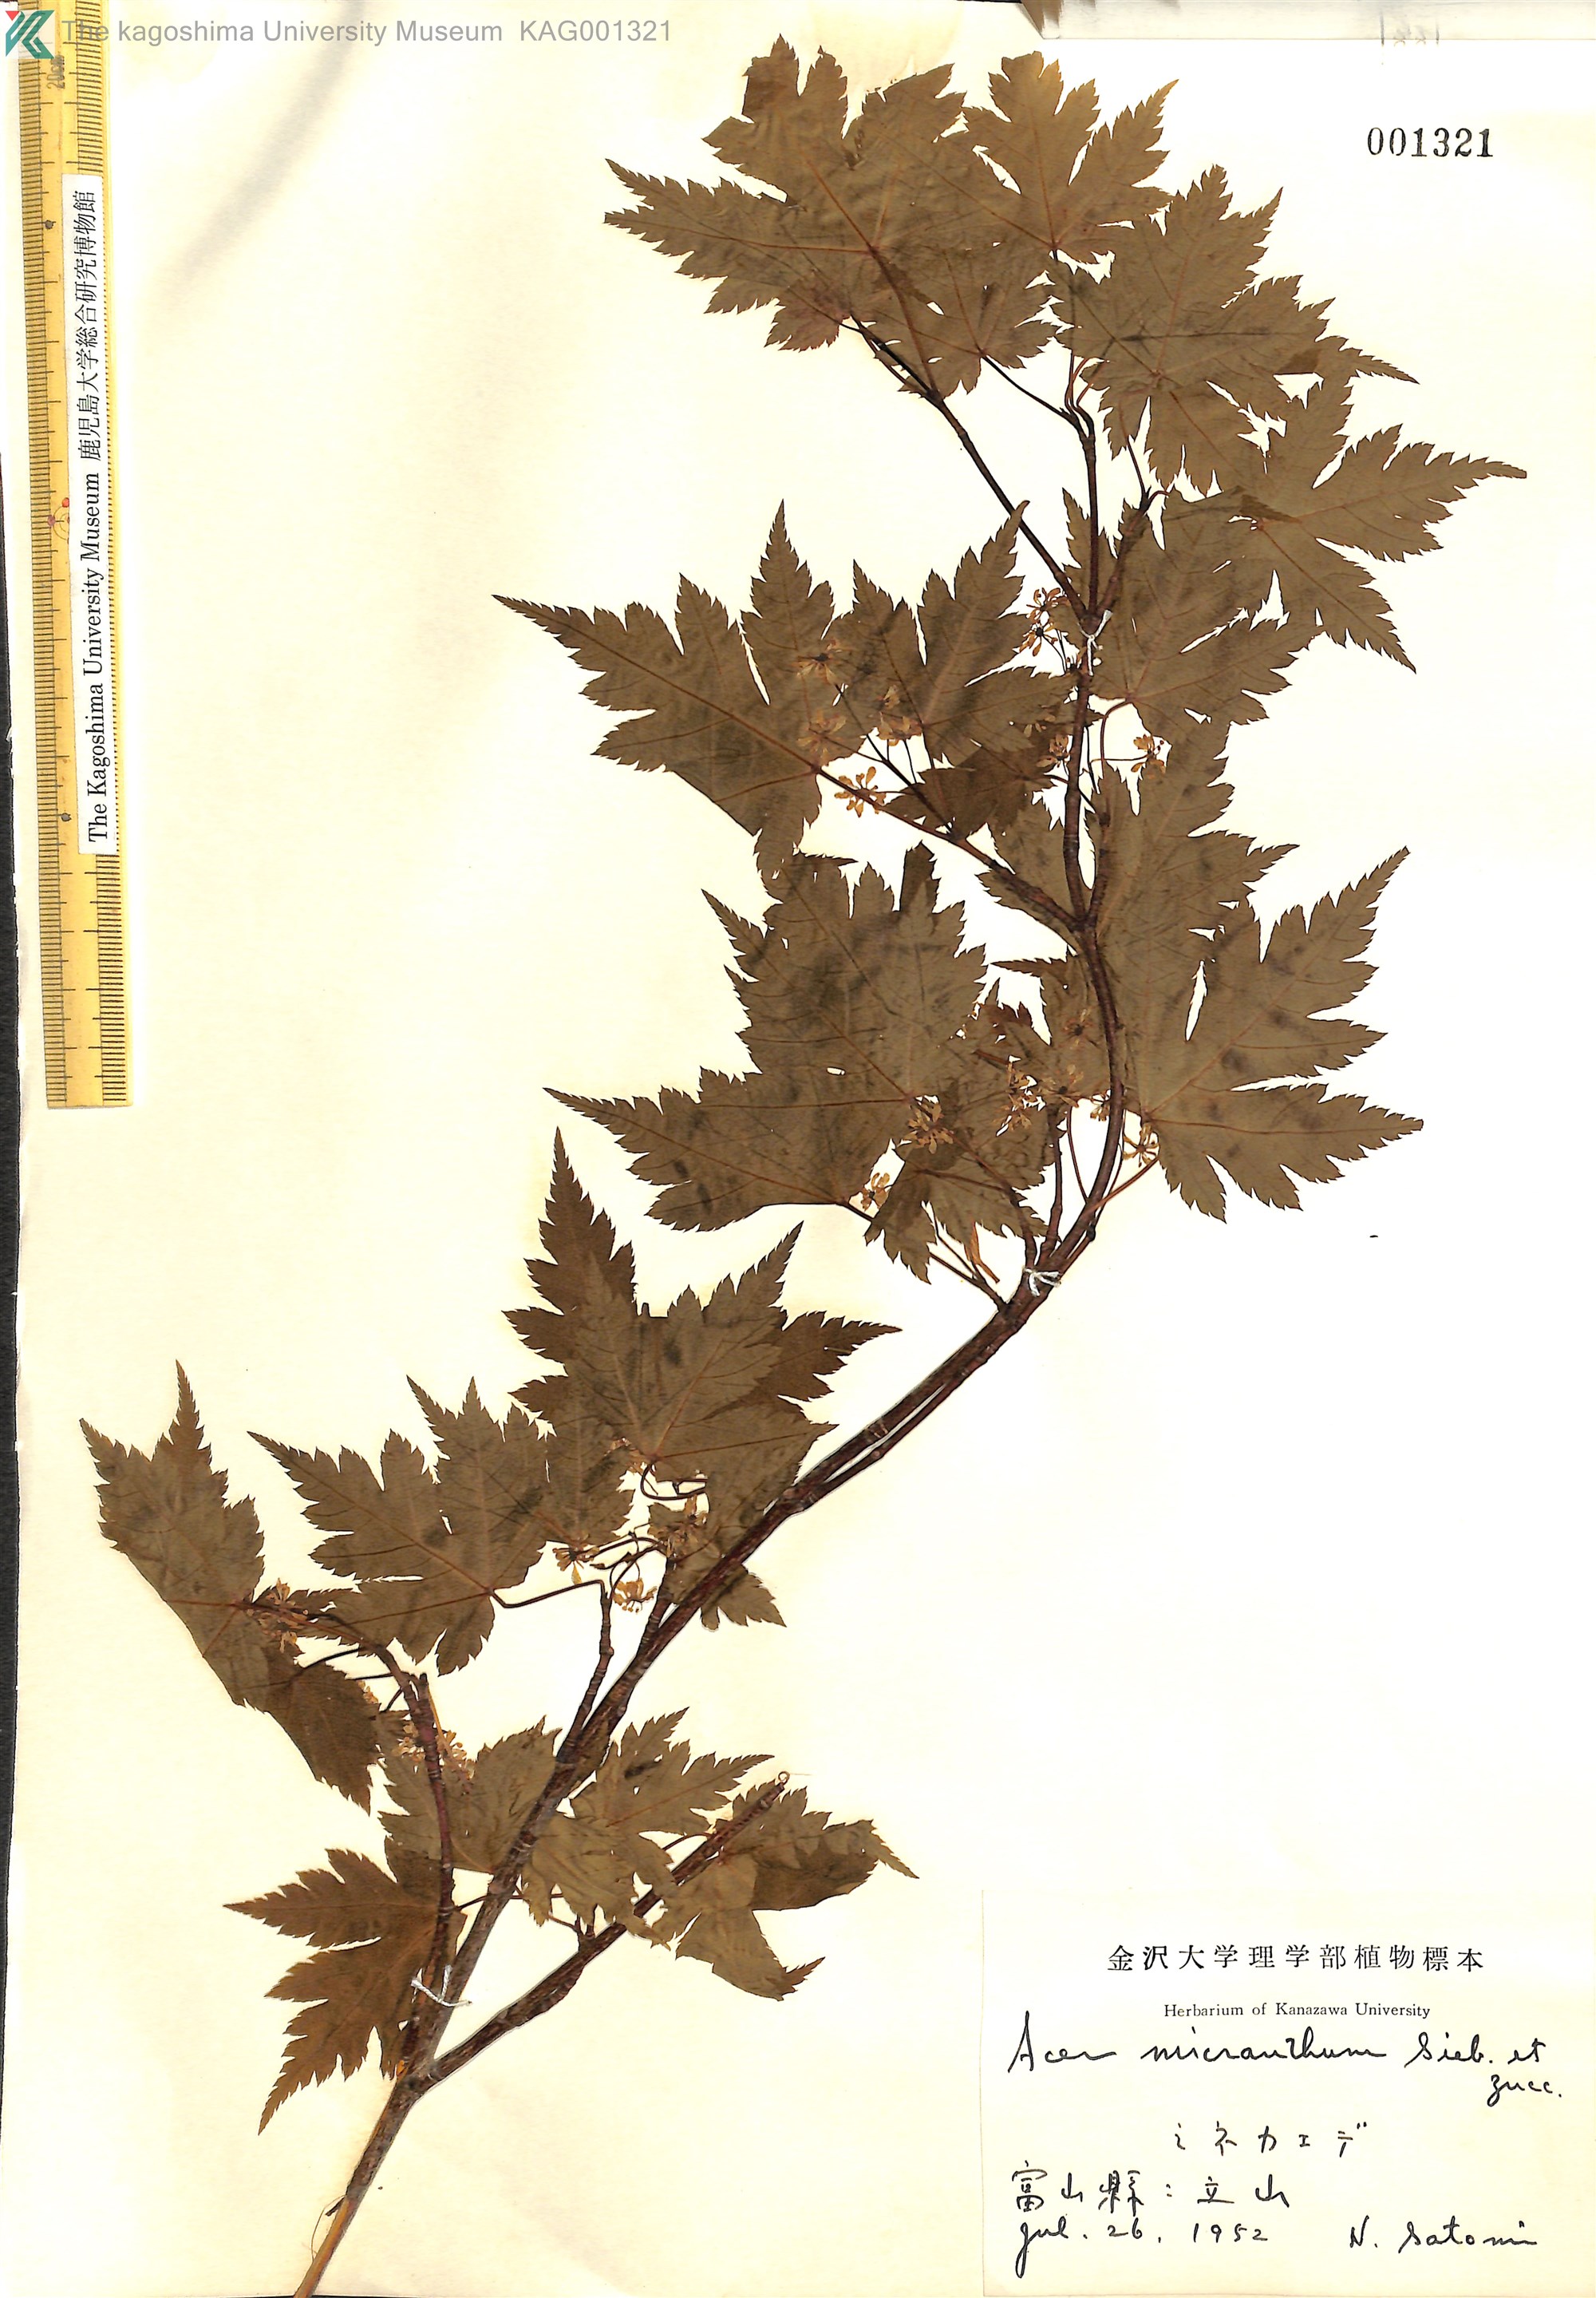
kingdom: Plantae
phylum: Tracheophyta
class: Magnoliopsida
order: Sapindales
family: Sapindaceae
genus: Acer
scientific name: Acer micranthum
